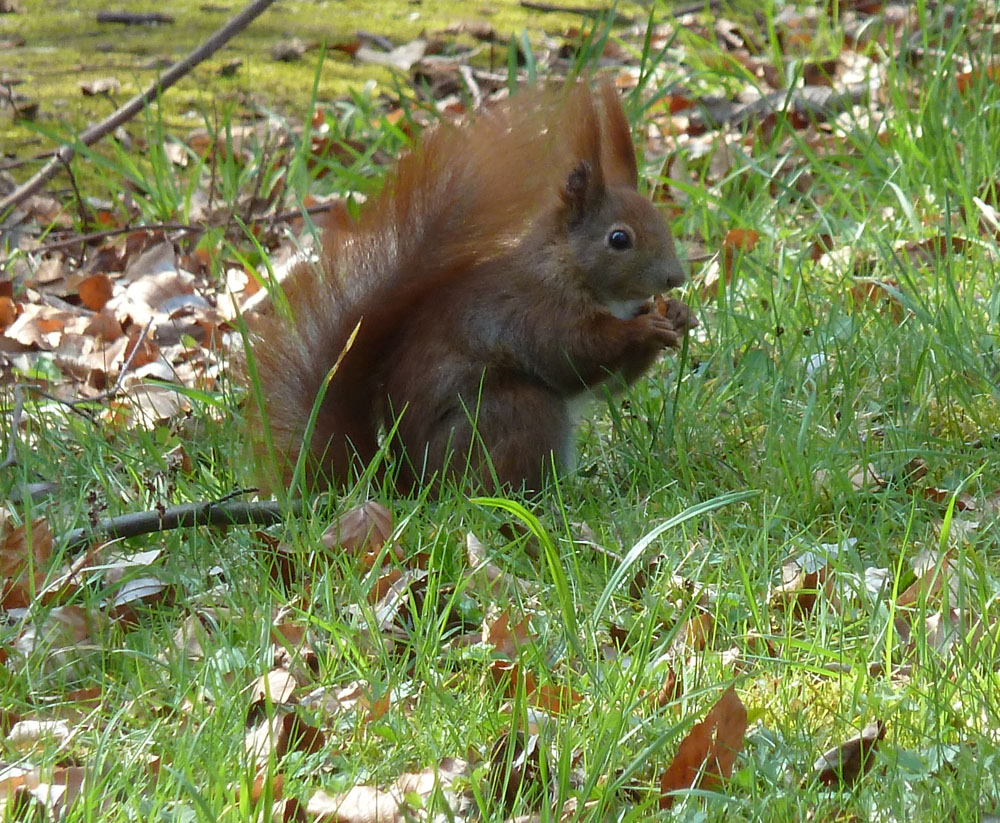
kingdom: Animalia
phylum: Chordata
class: Mammalia
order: Rodentia
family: Sciuridae
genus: Sciurus
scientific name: Sciurus vulgaris
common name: Eurasian red squirrel
